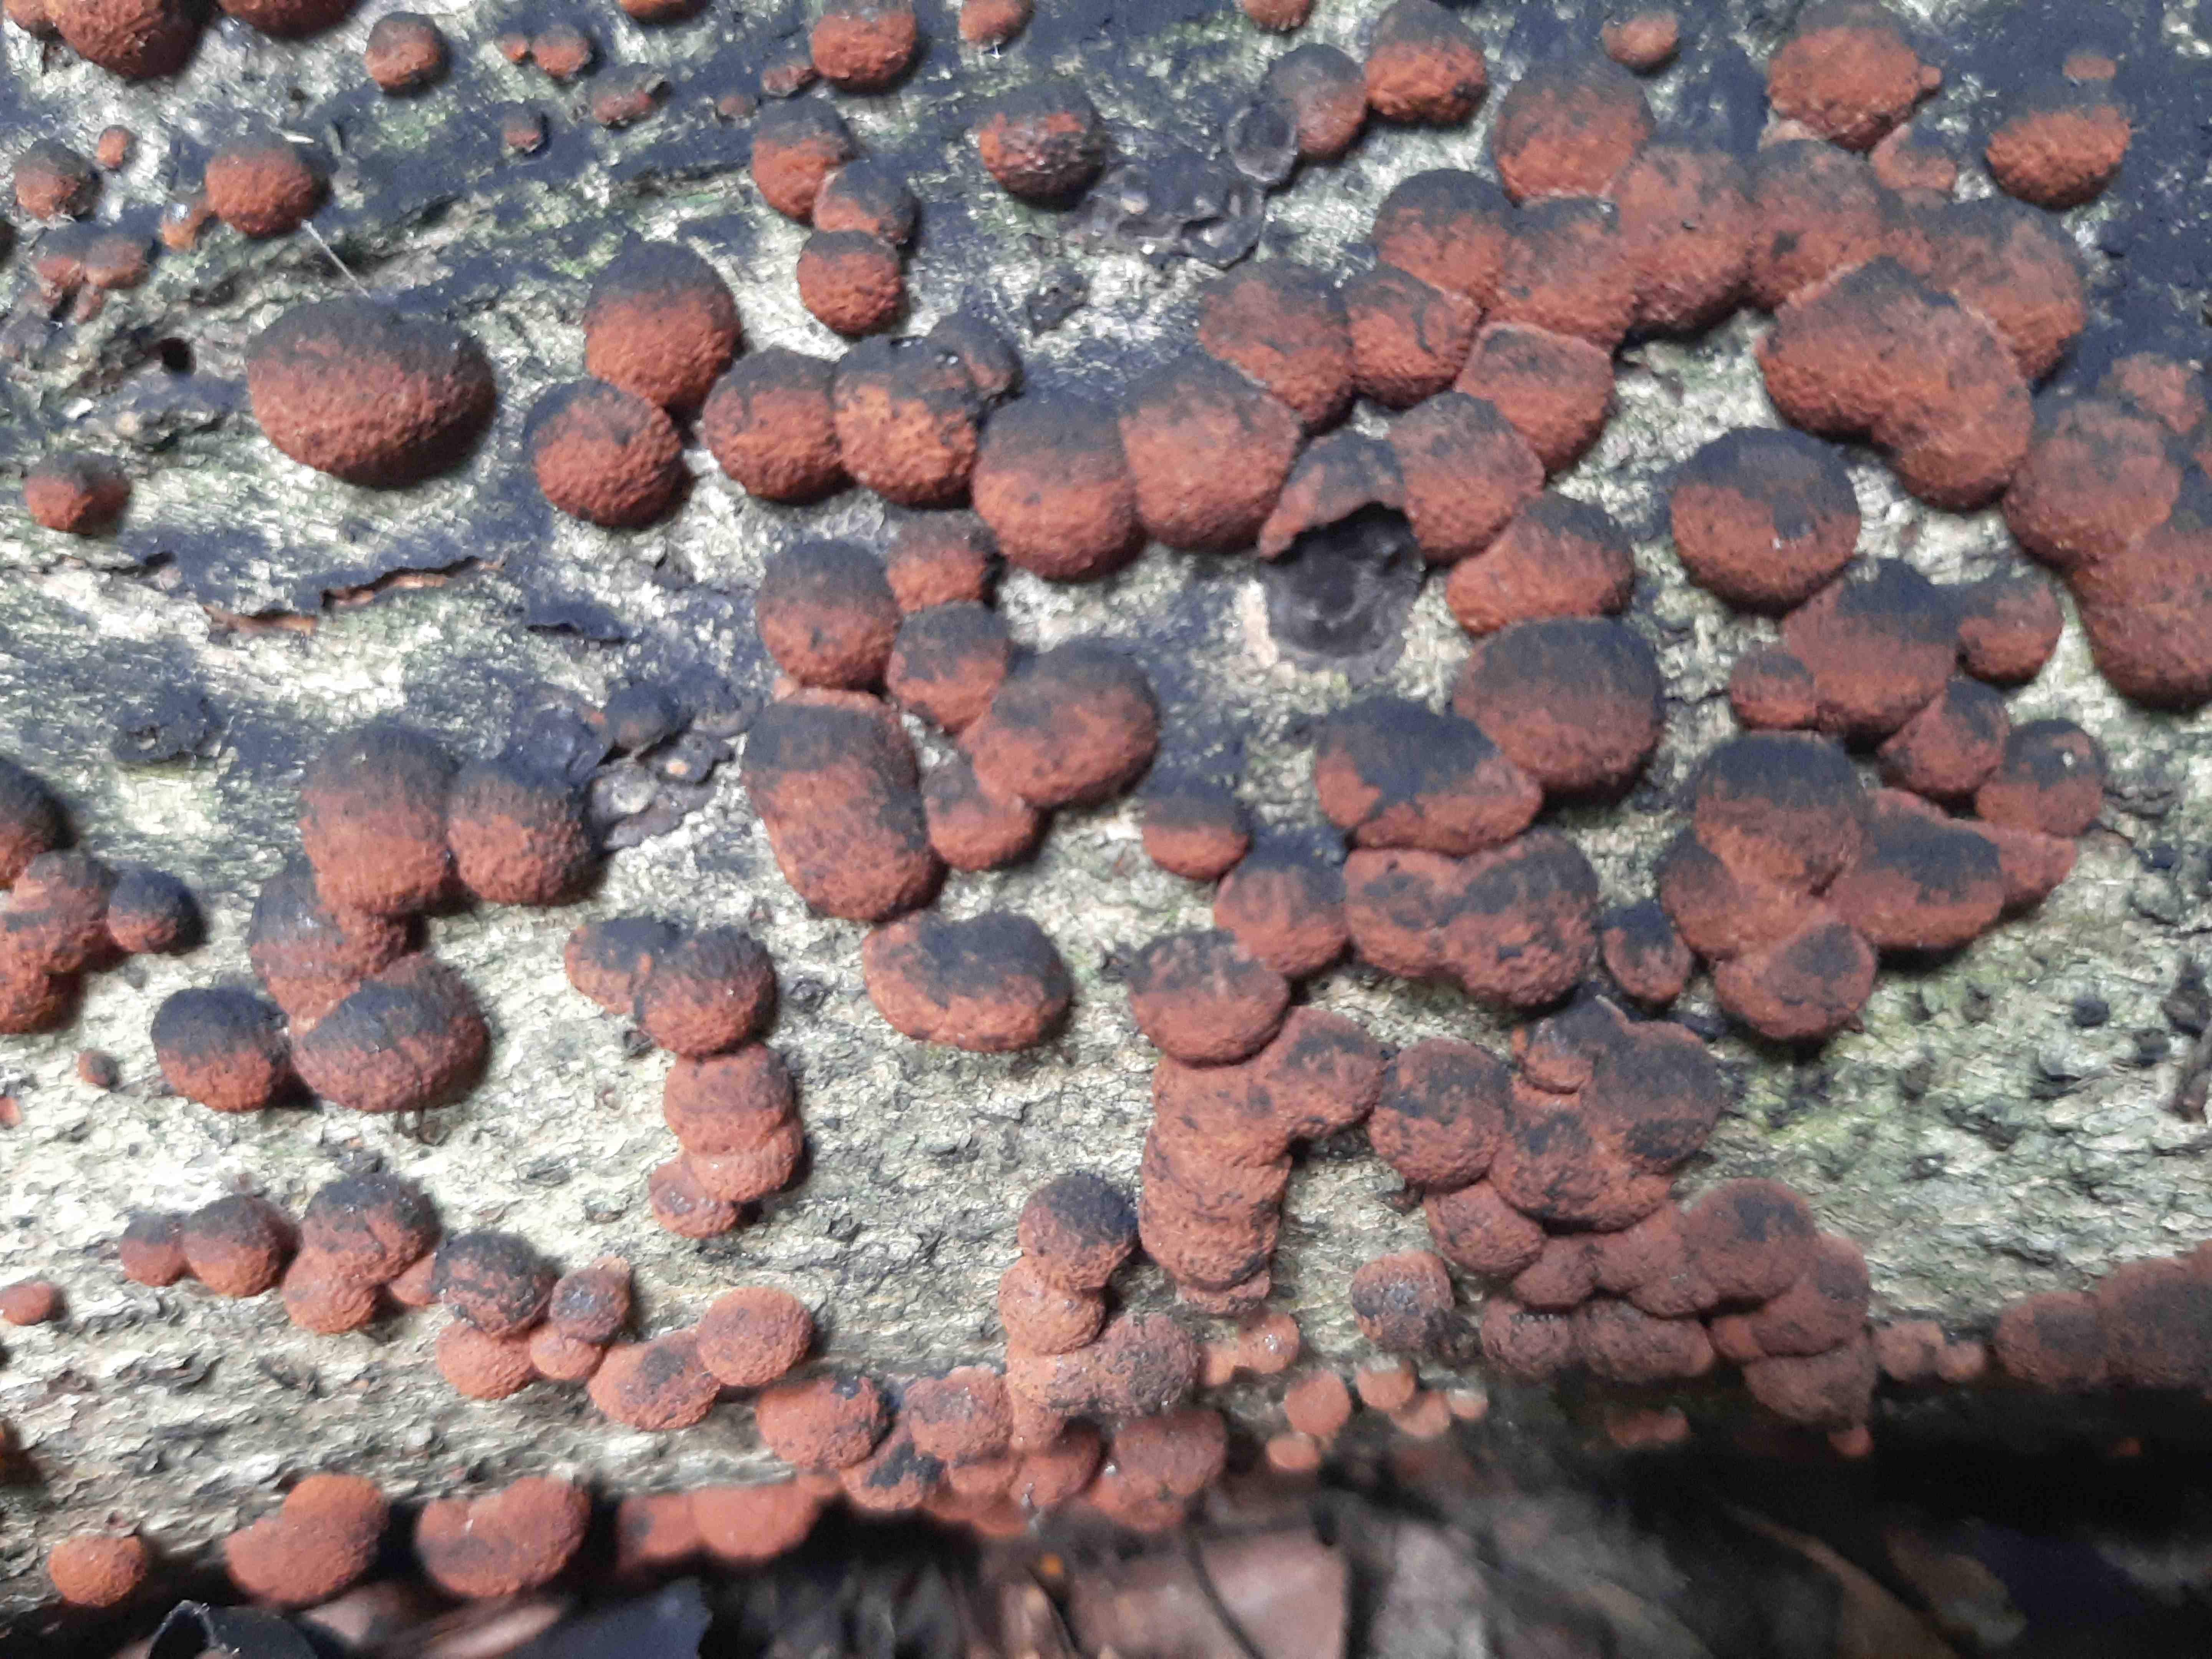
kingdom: Fungi
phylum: Ascomycota
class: Sordariomycetes
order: Xylariales
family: Hypoxylaceae
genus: Hypoxylon
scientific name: Hypoxylon fragiforme
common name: kuljordbær
